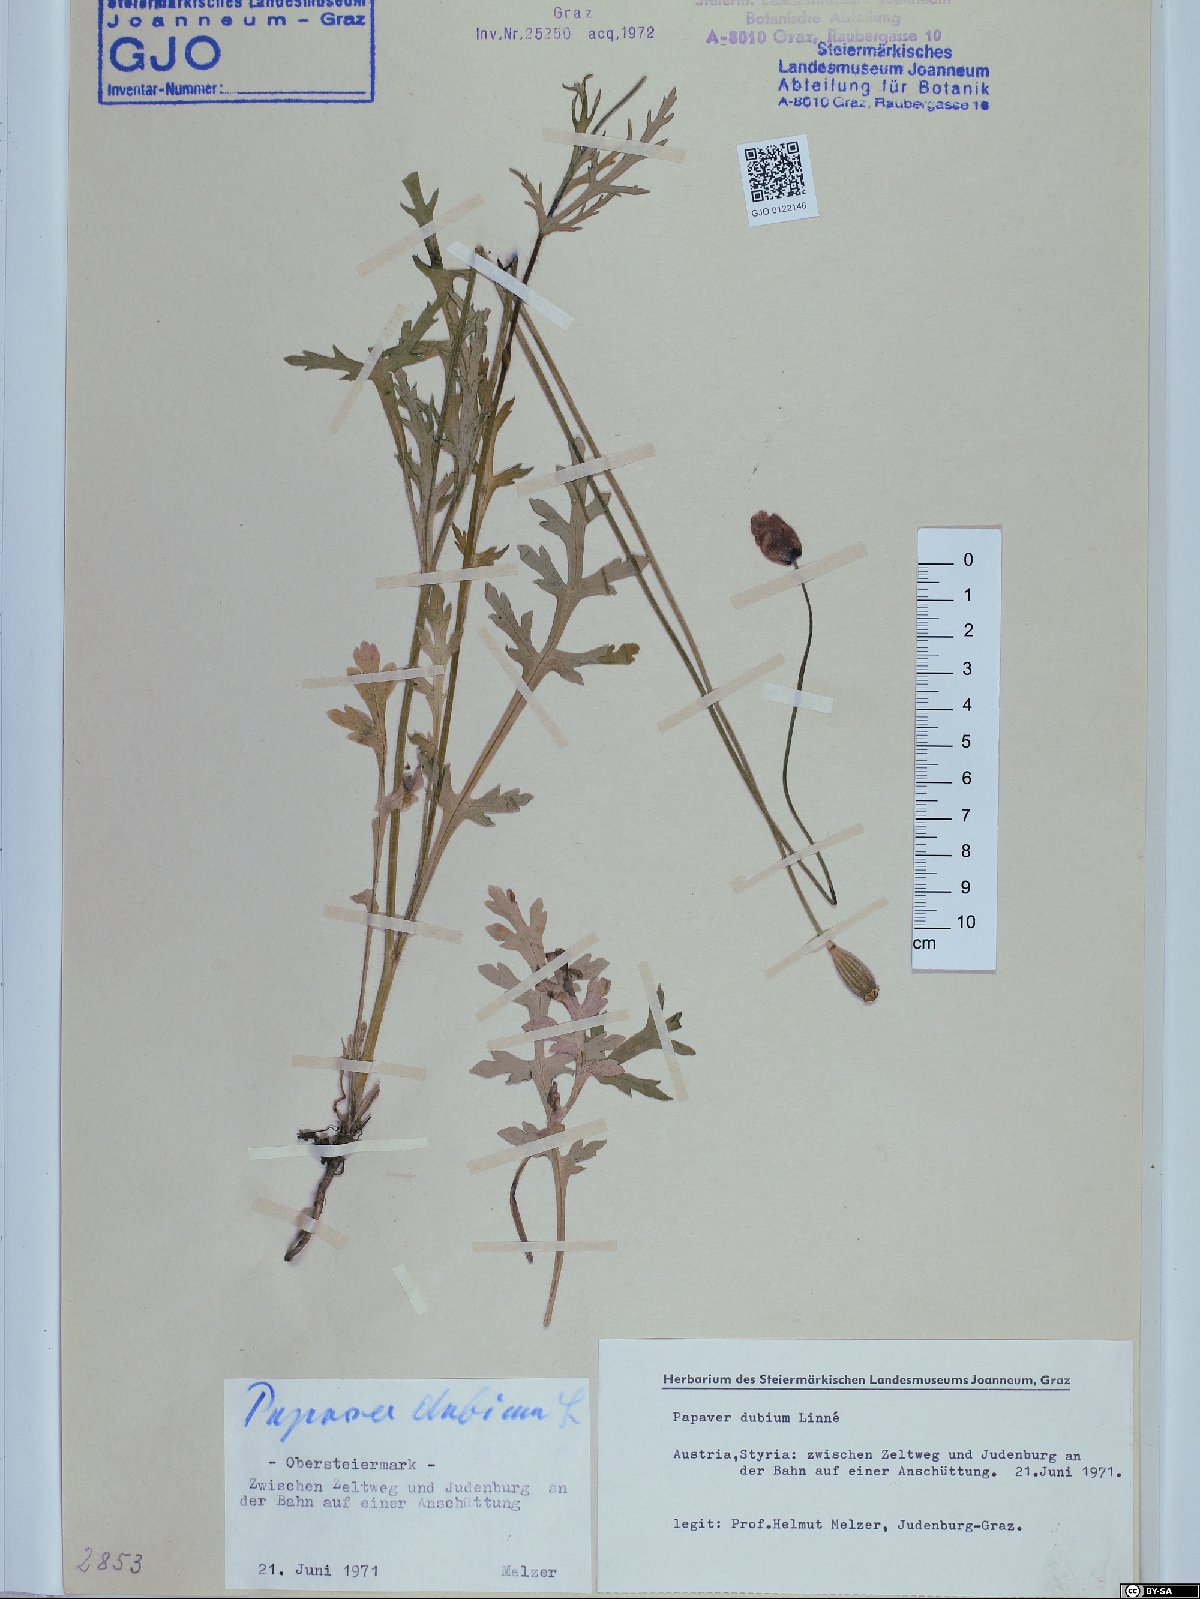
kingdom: Plantae
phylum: Tracheophyta
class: Magnoliopsida
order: Ranunculales
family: Papaveraceae
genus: Papaver
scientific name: Papaver dubium
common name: Long-headed poppy
